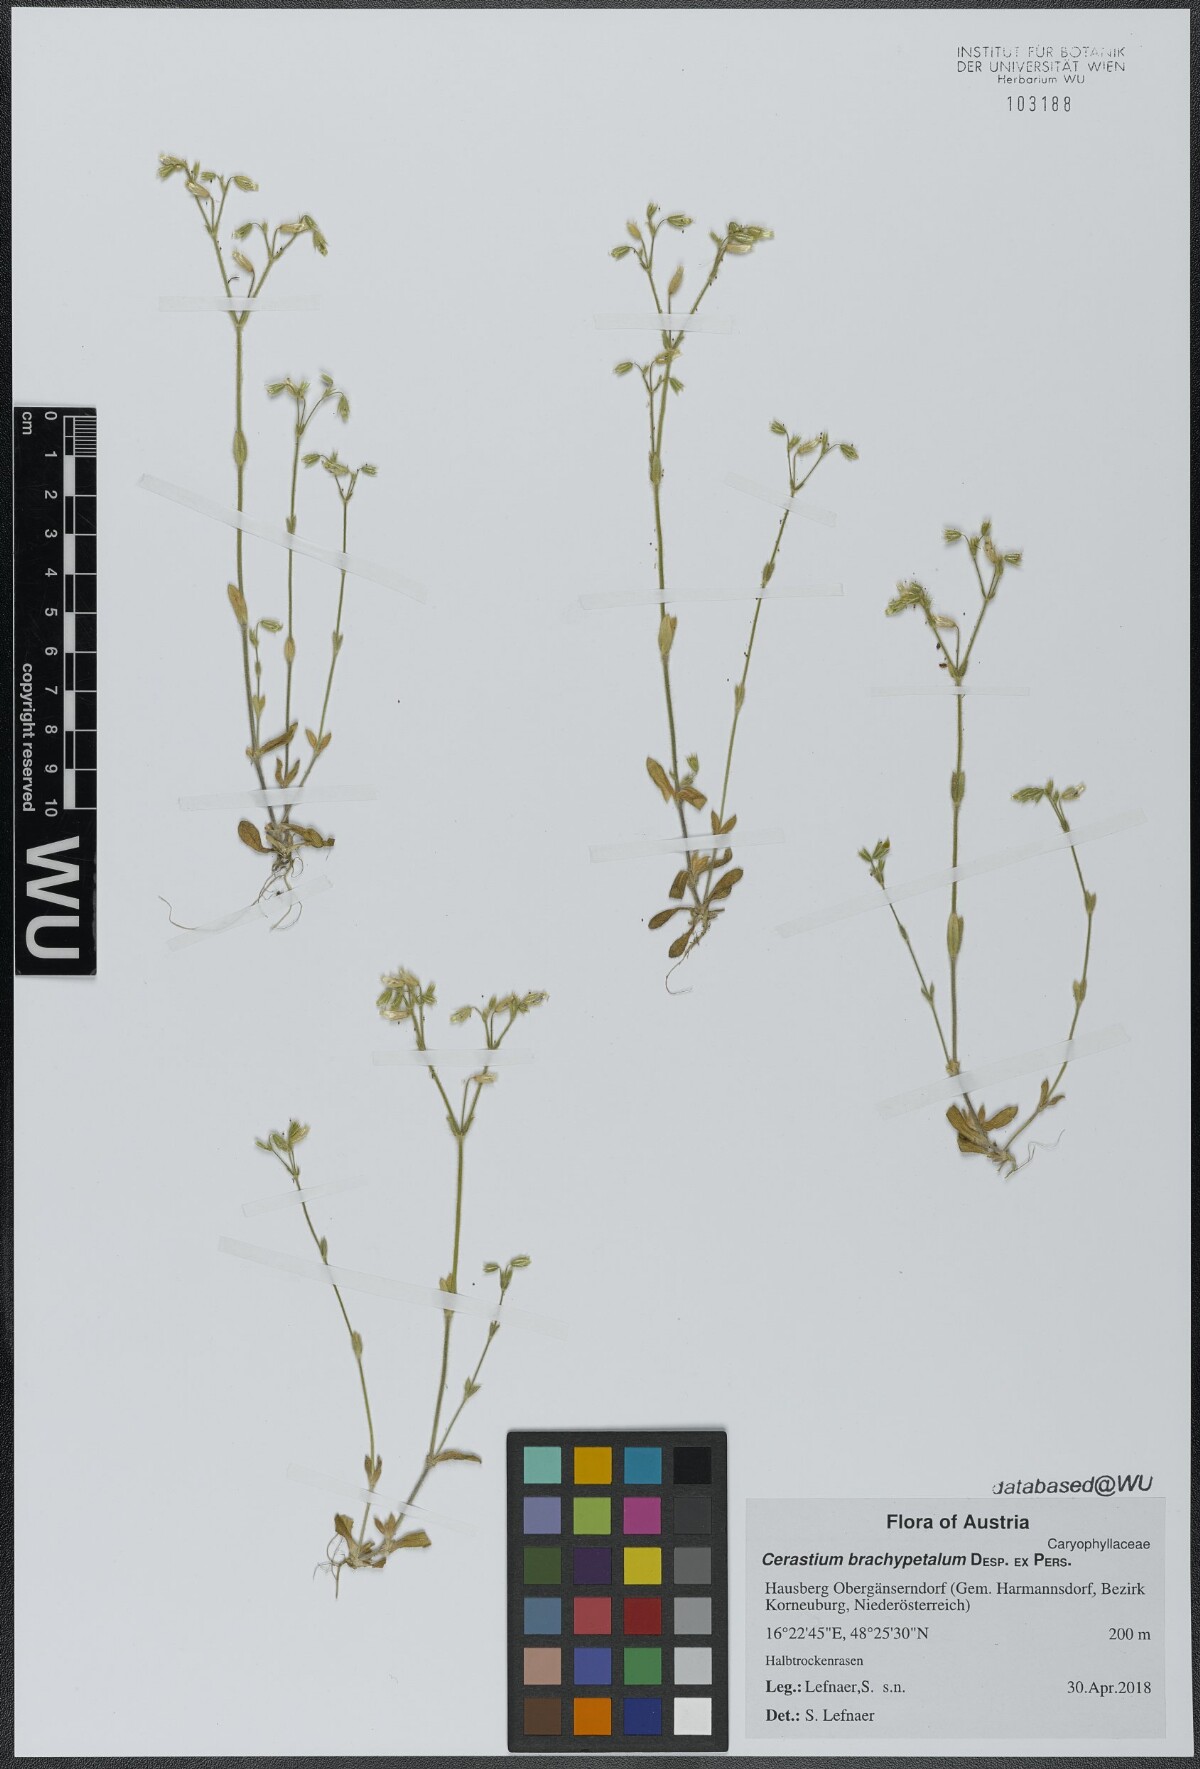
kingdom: Plantae
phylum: Tracheophyta
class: Magnoliopsida
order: Caryophyllales
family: Caryophyllaceae
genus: Cerastium
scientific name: Cerastium brachypetalum
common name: Grey mouse-ear
